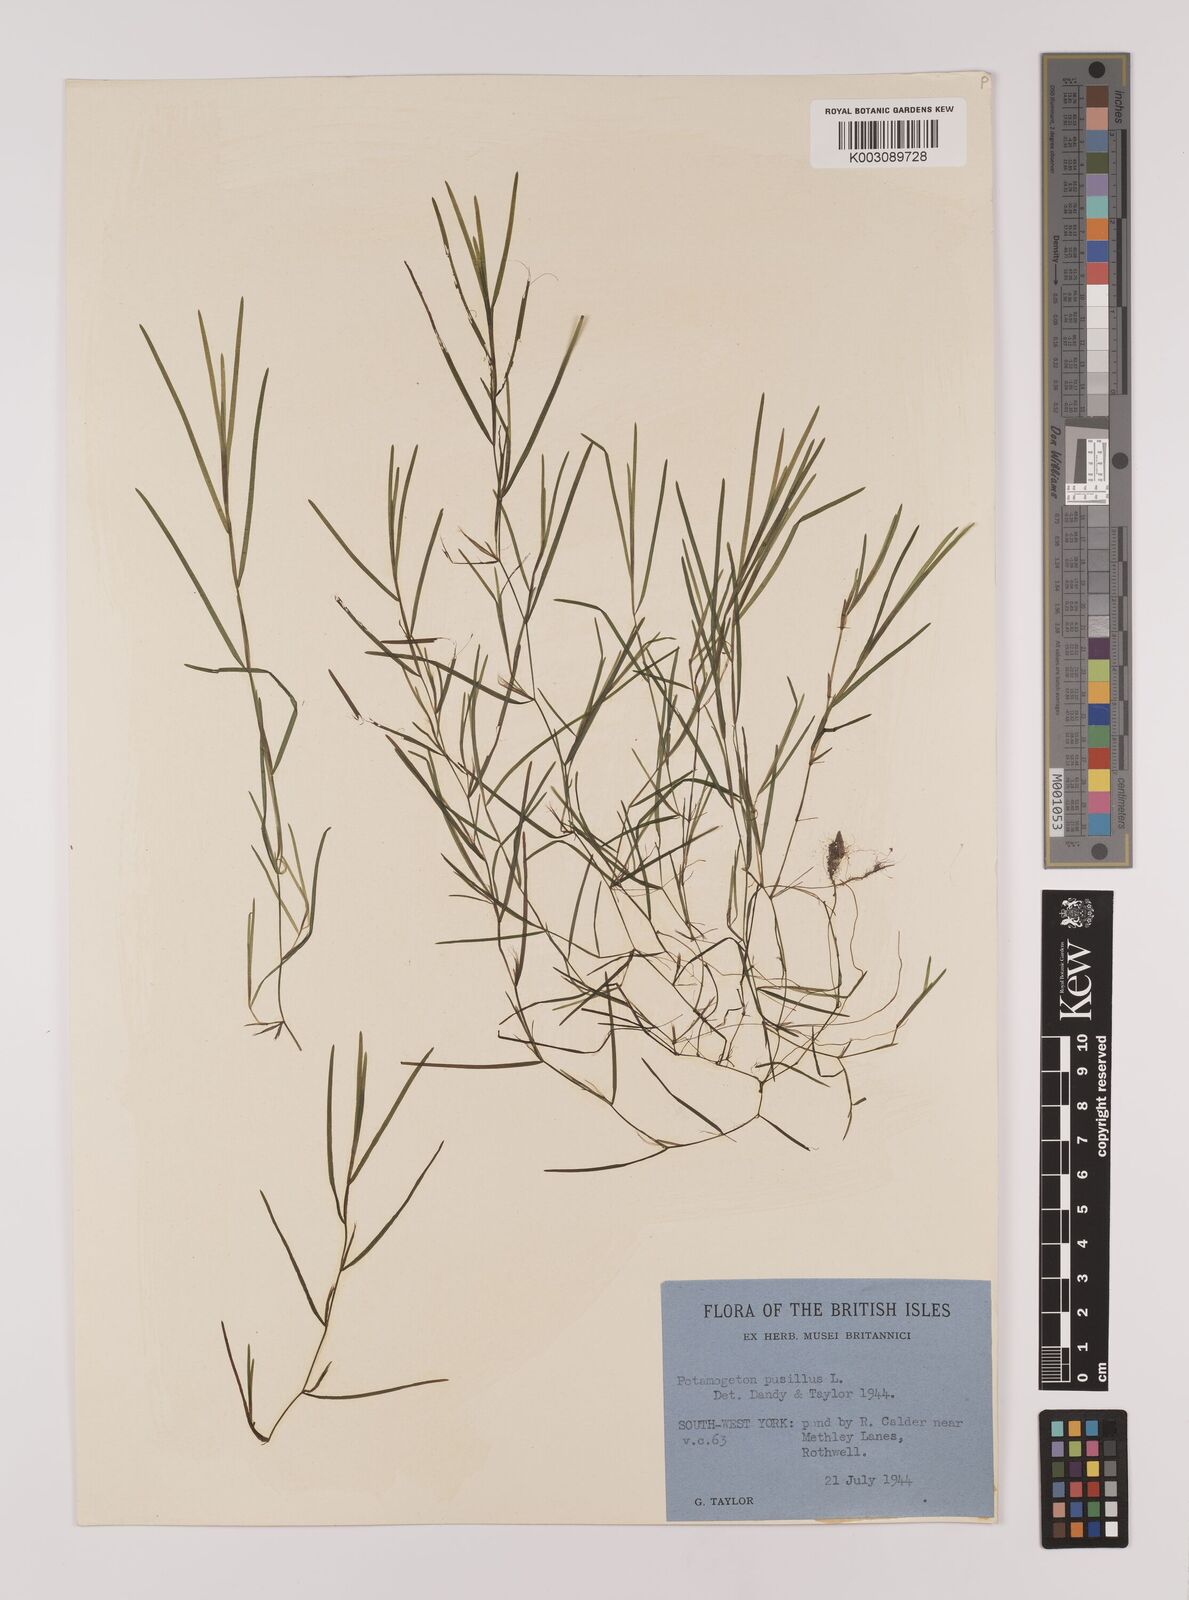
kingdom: Plantae
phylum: Tracheophyta
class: Liliopsida
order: Alismatales
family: Potamogetonaceae
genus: Stuckenia
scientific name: Stuckenia pectinata
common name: Sago pondweed
